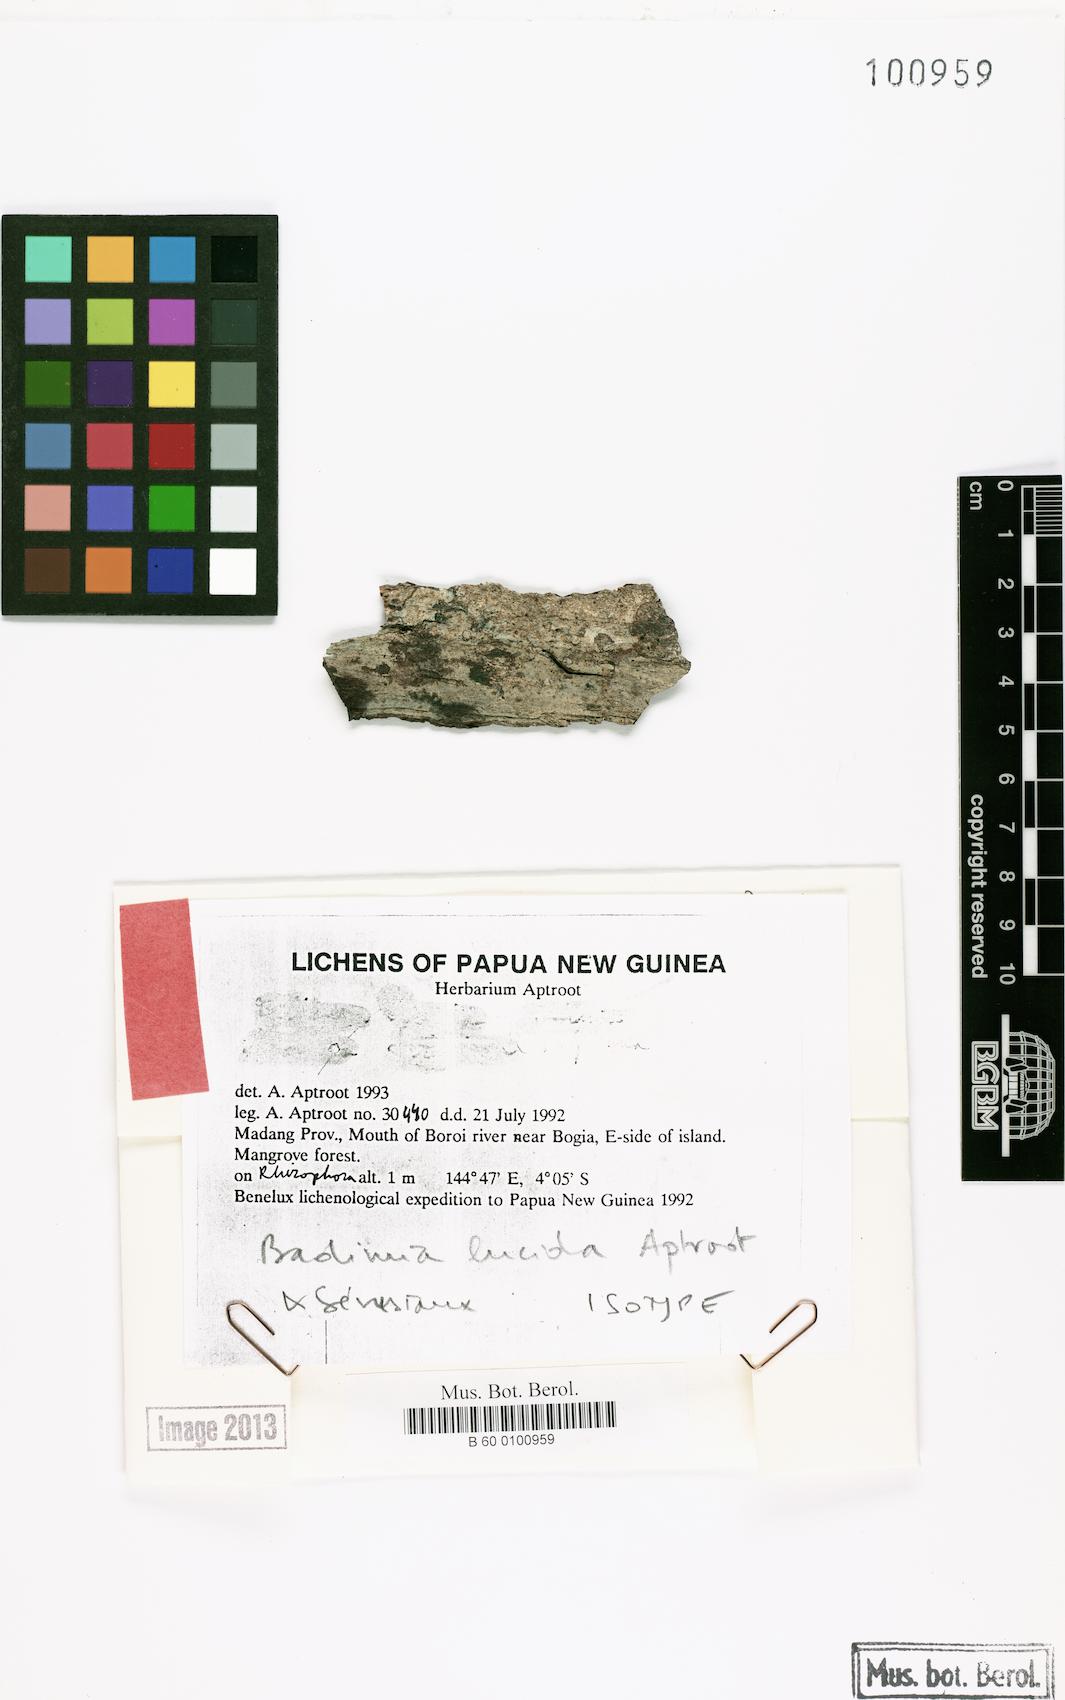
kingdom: Fungi
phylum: Ascomycota
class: Lecanoromycetes
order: Lecanorales
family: Pilocarpaceae
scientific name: Pilocarpaceae
